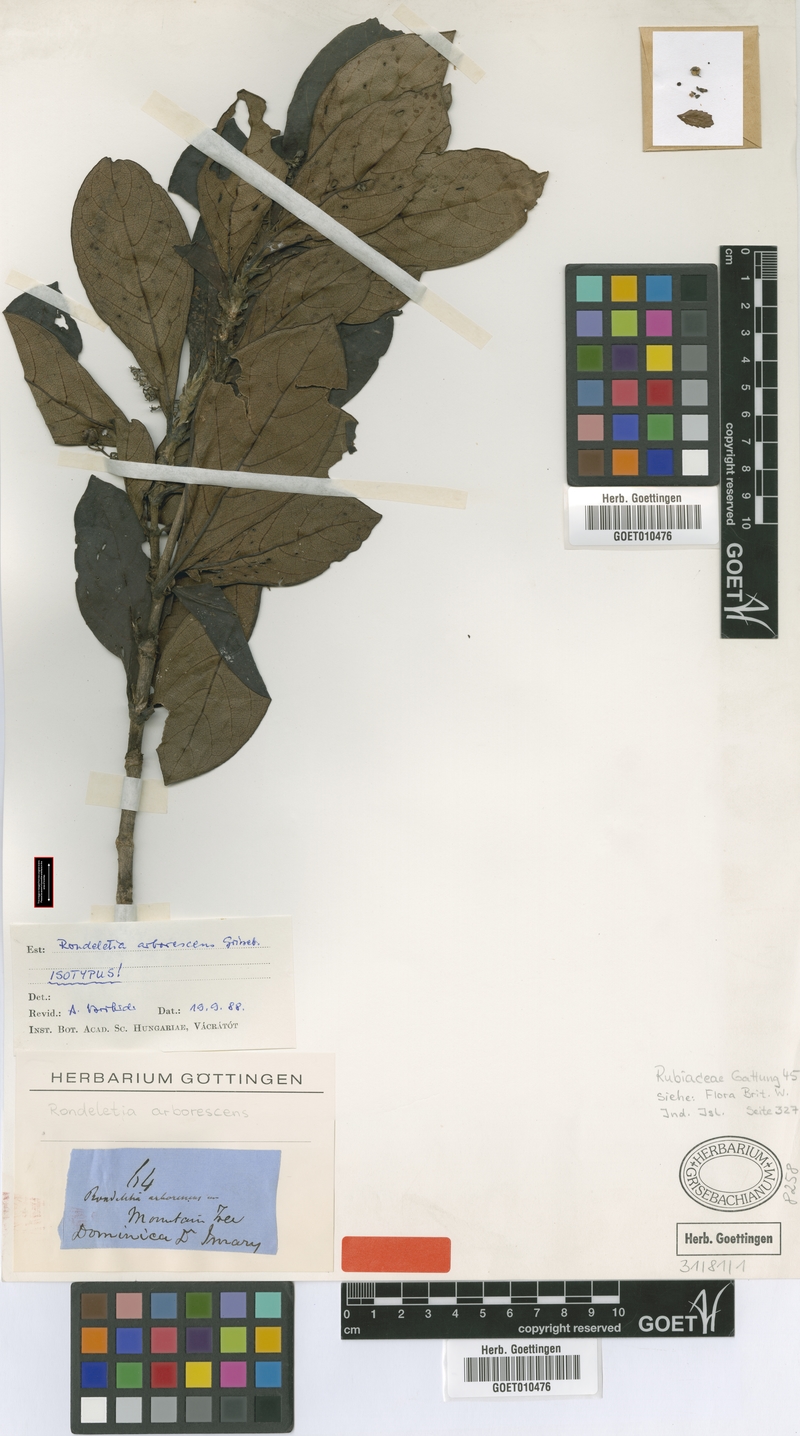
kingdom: Plantae
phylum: Tracheophyta
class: Magnoliopsida
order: Gentianales
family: Rubiaceae
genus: Rondeletia
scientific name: Rondeletia parviflora
